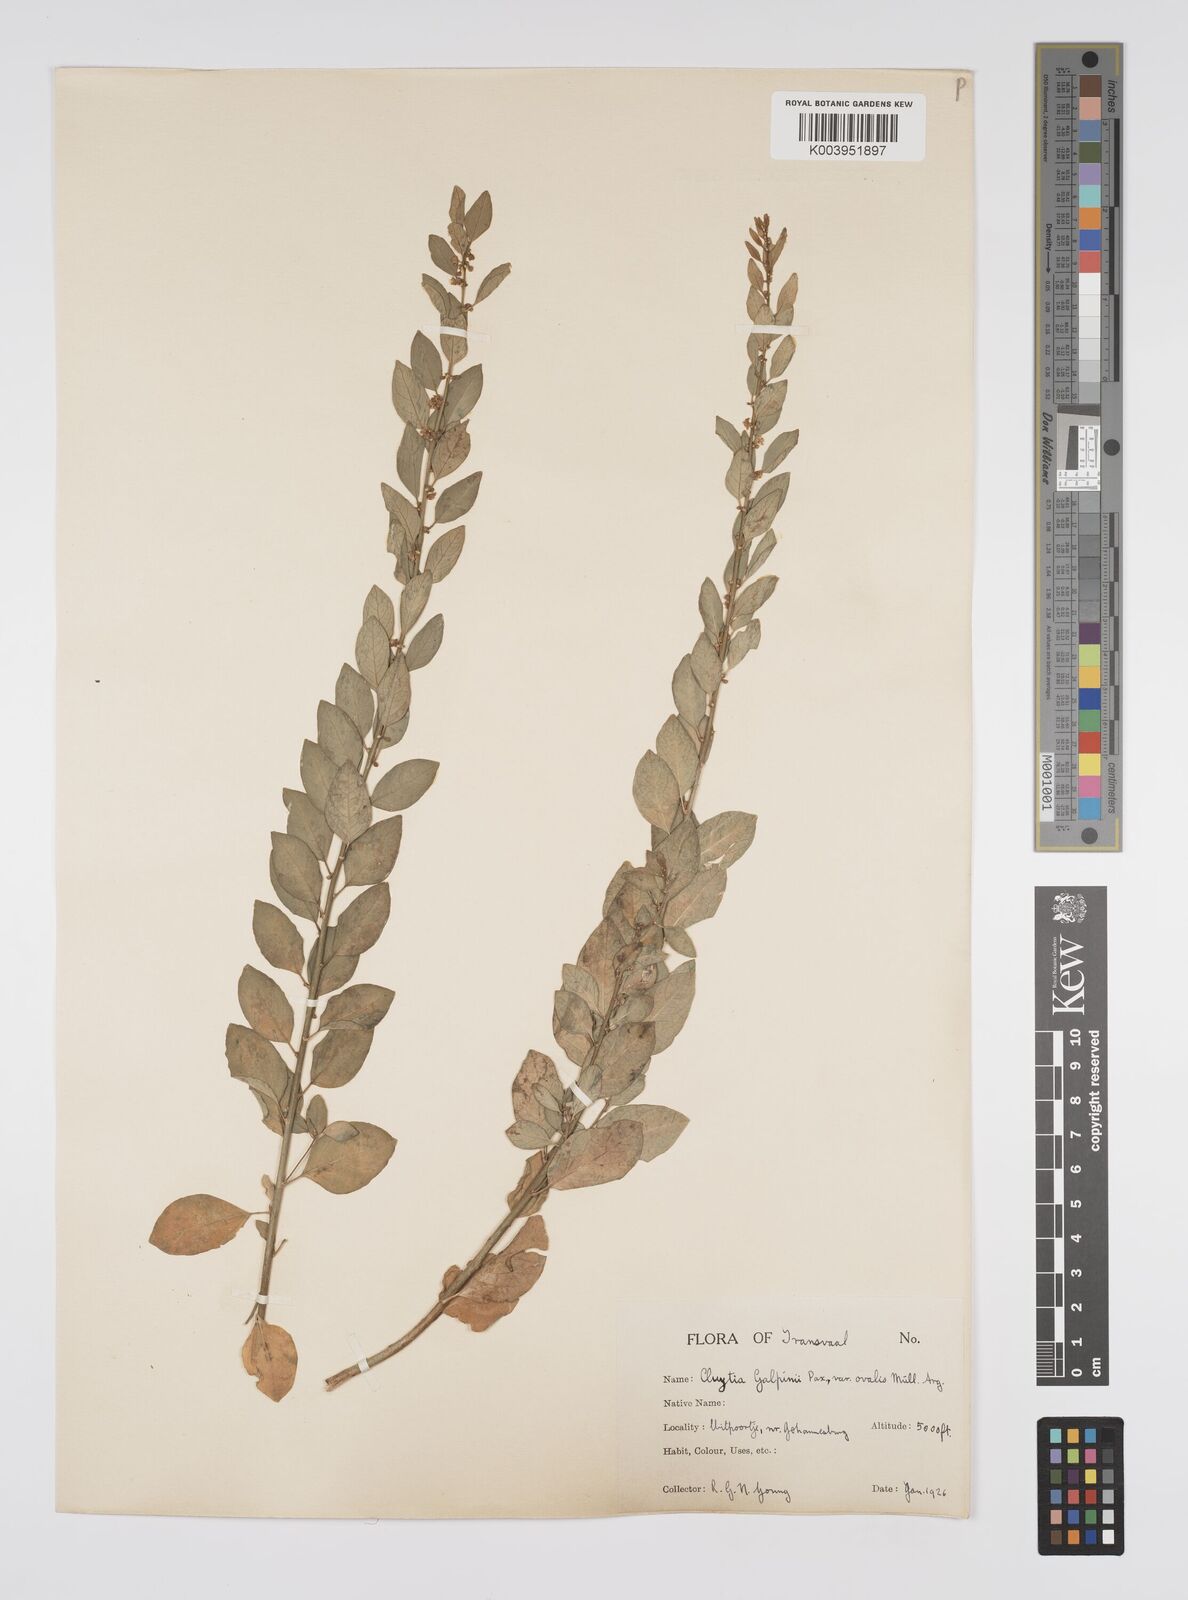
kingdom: Plantae
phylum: Tracheophyta
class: Magnoliopsida
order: Malpighiales
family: Peraceae
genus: Clutia
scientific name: Clutia galpinii
